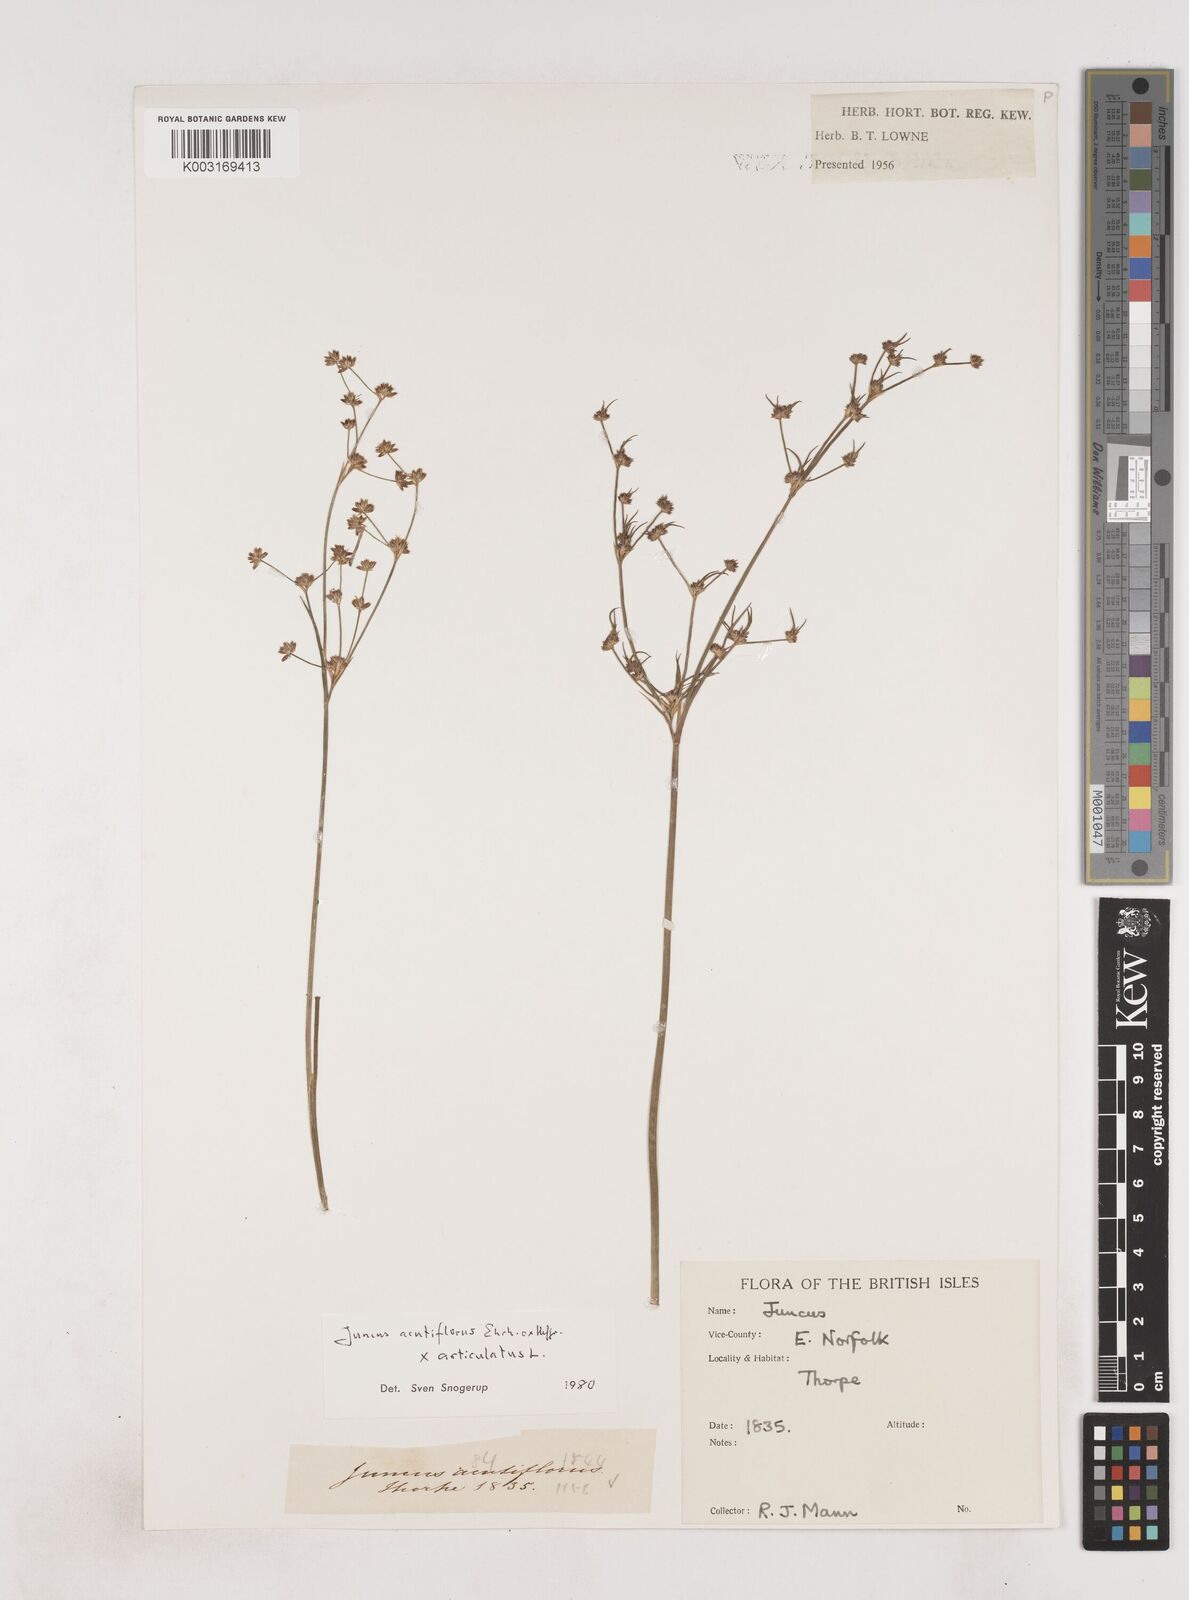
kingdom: Plantae
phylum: Tracheophyta
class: Liliopsida
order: Poales
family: Juncaceae
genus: Juncus
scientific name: Juncus acutiflorus
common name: Sharp-flowered rush
